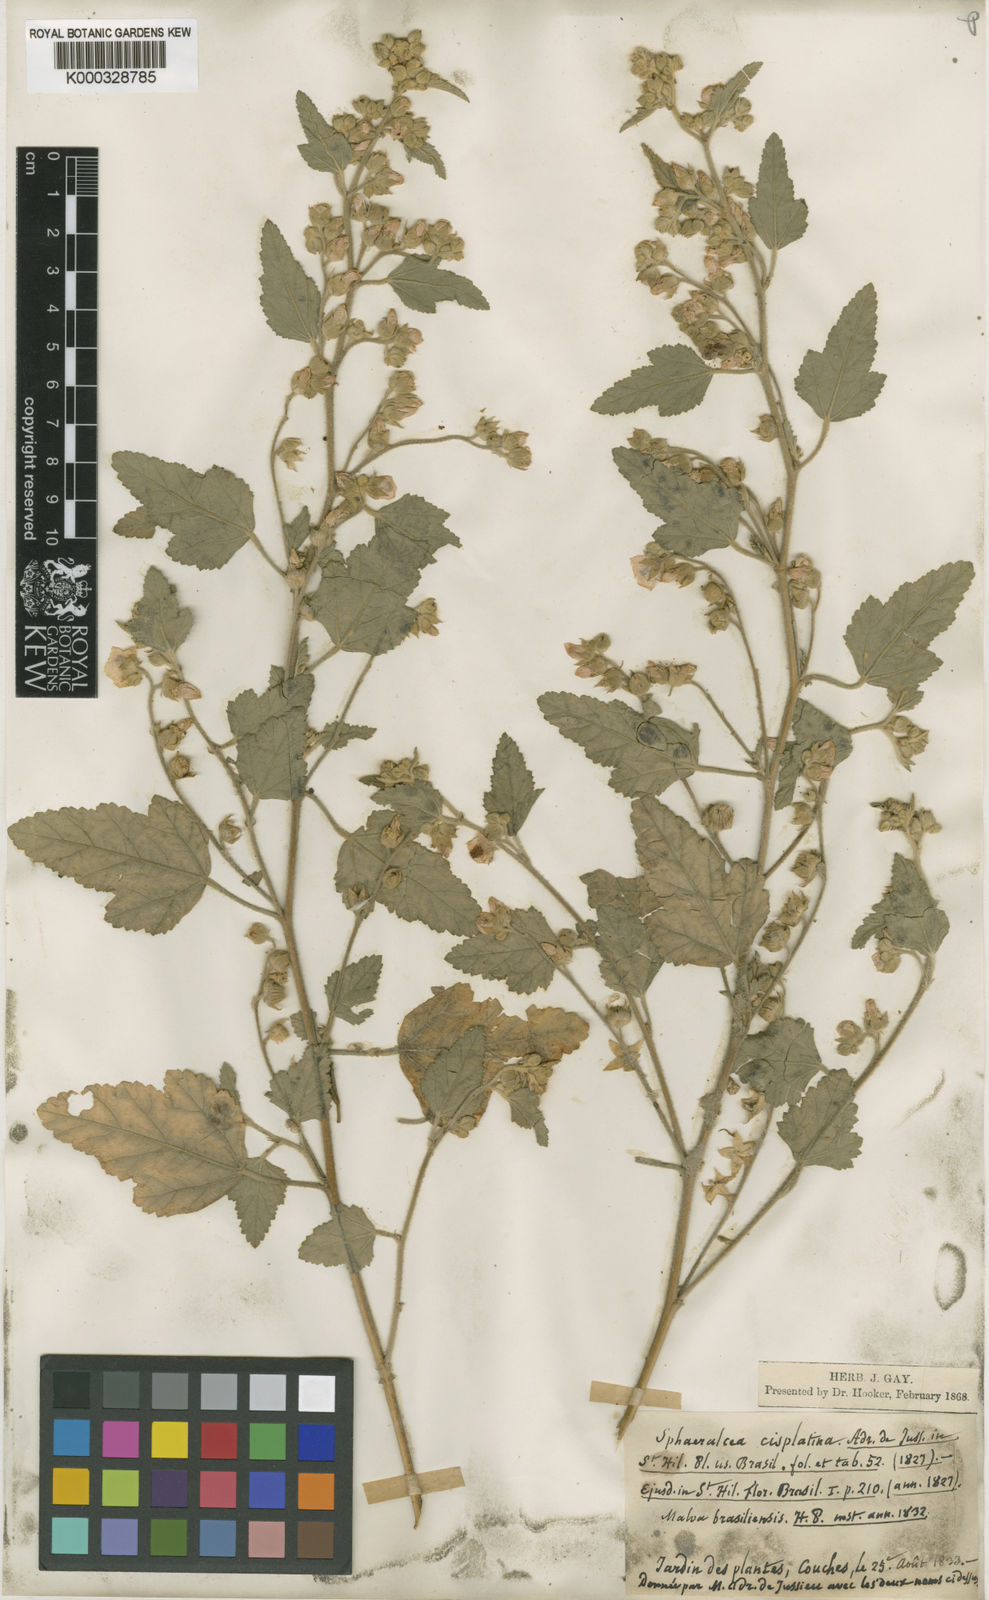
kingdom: Plantae
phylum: Tracheophyta
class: Magnoliopsida
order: Malvales
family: Malvaceae
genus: Sphaeralcea
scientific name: Sphaeralcea miniata
